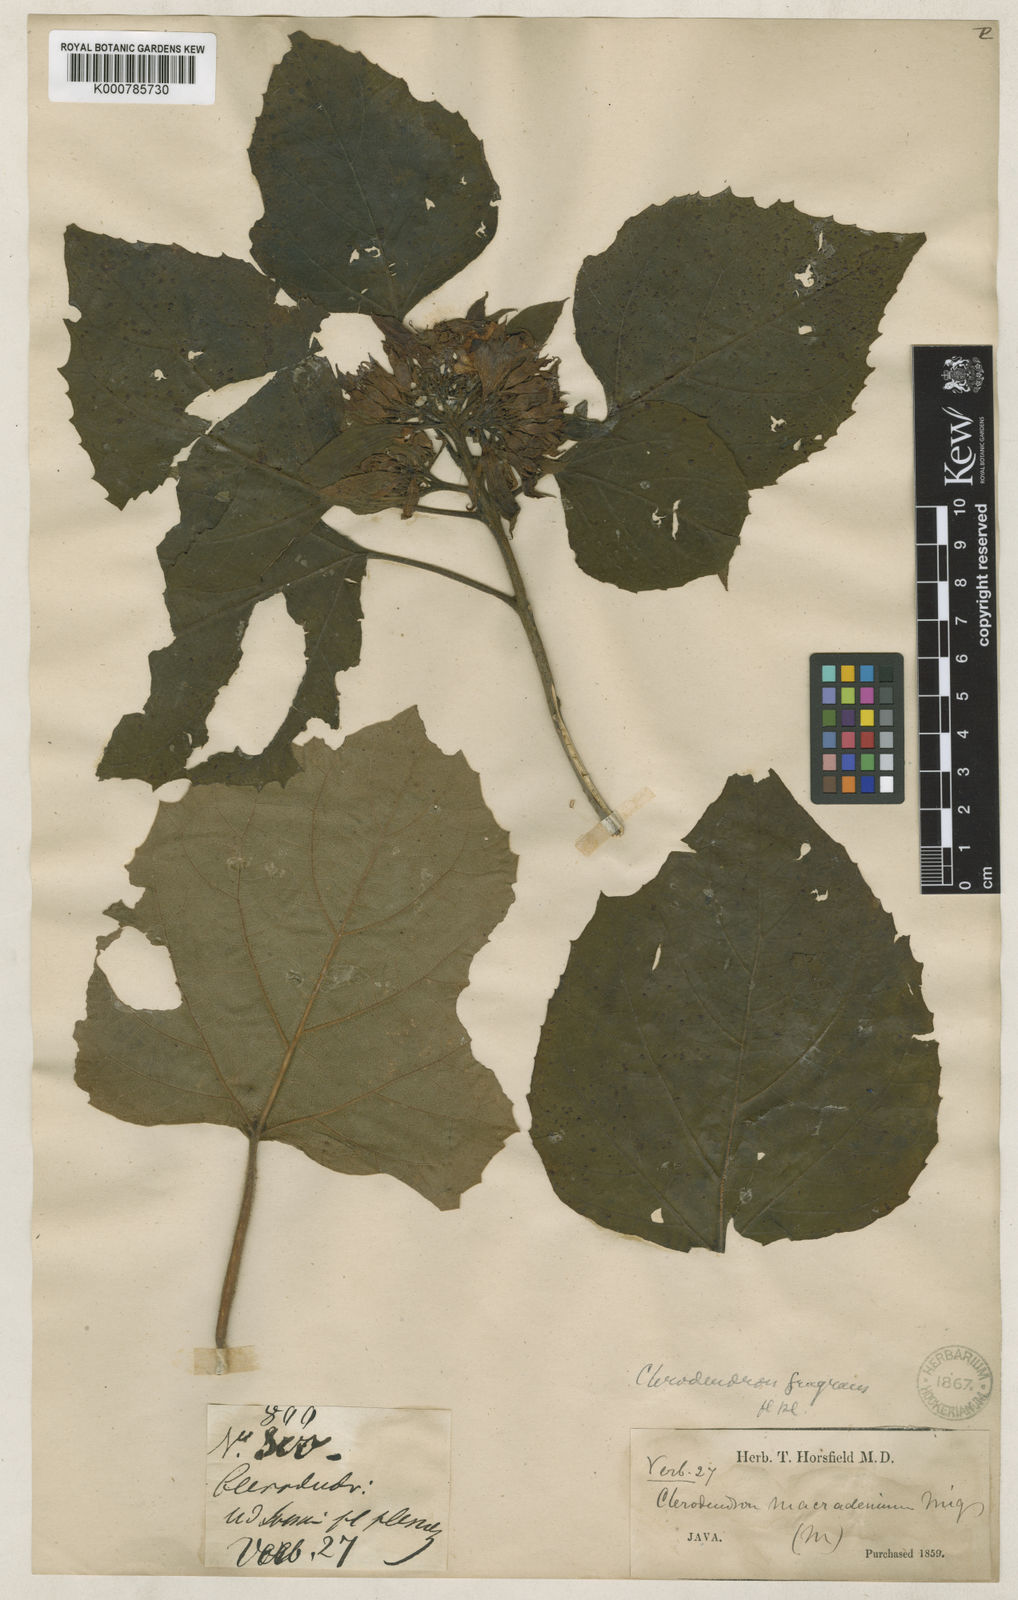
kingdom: Plantae
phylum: Tracheophyta
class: Magnoliopsida
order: Lamiales
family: Lamiaceae
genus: Clerodendrum
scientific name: Clerodendrum chinense
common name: Stickbush
